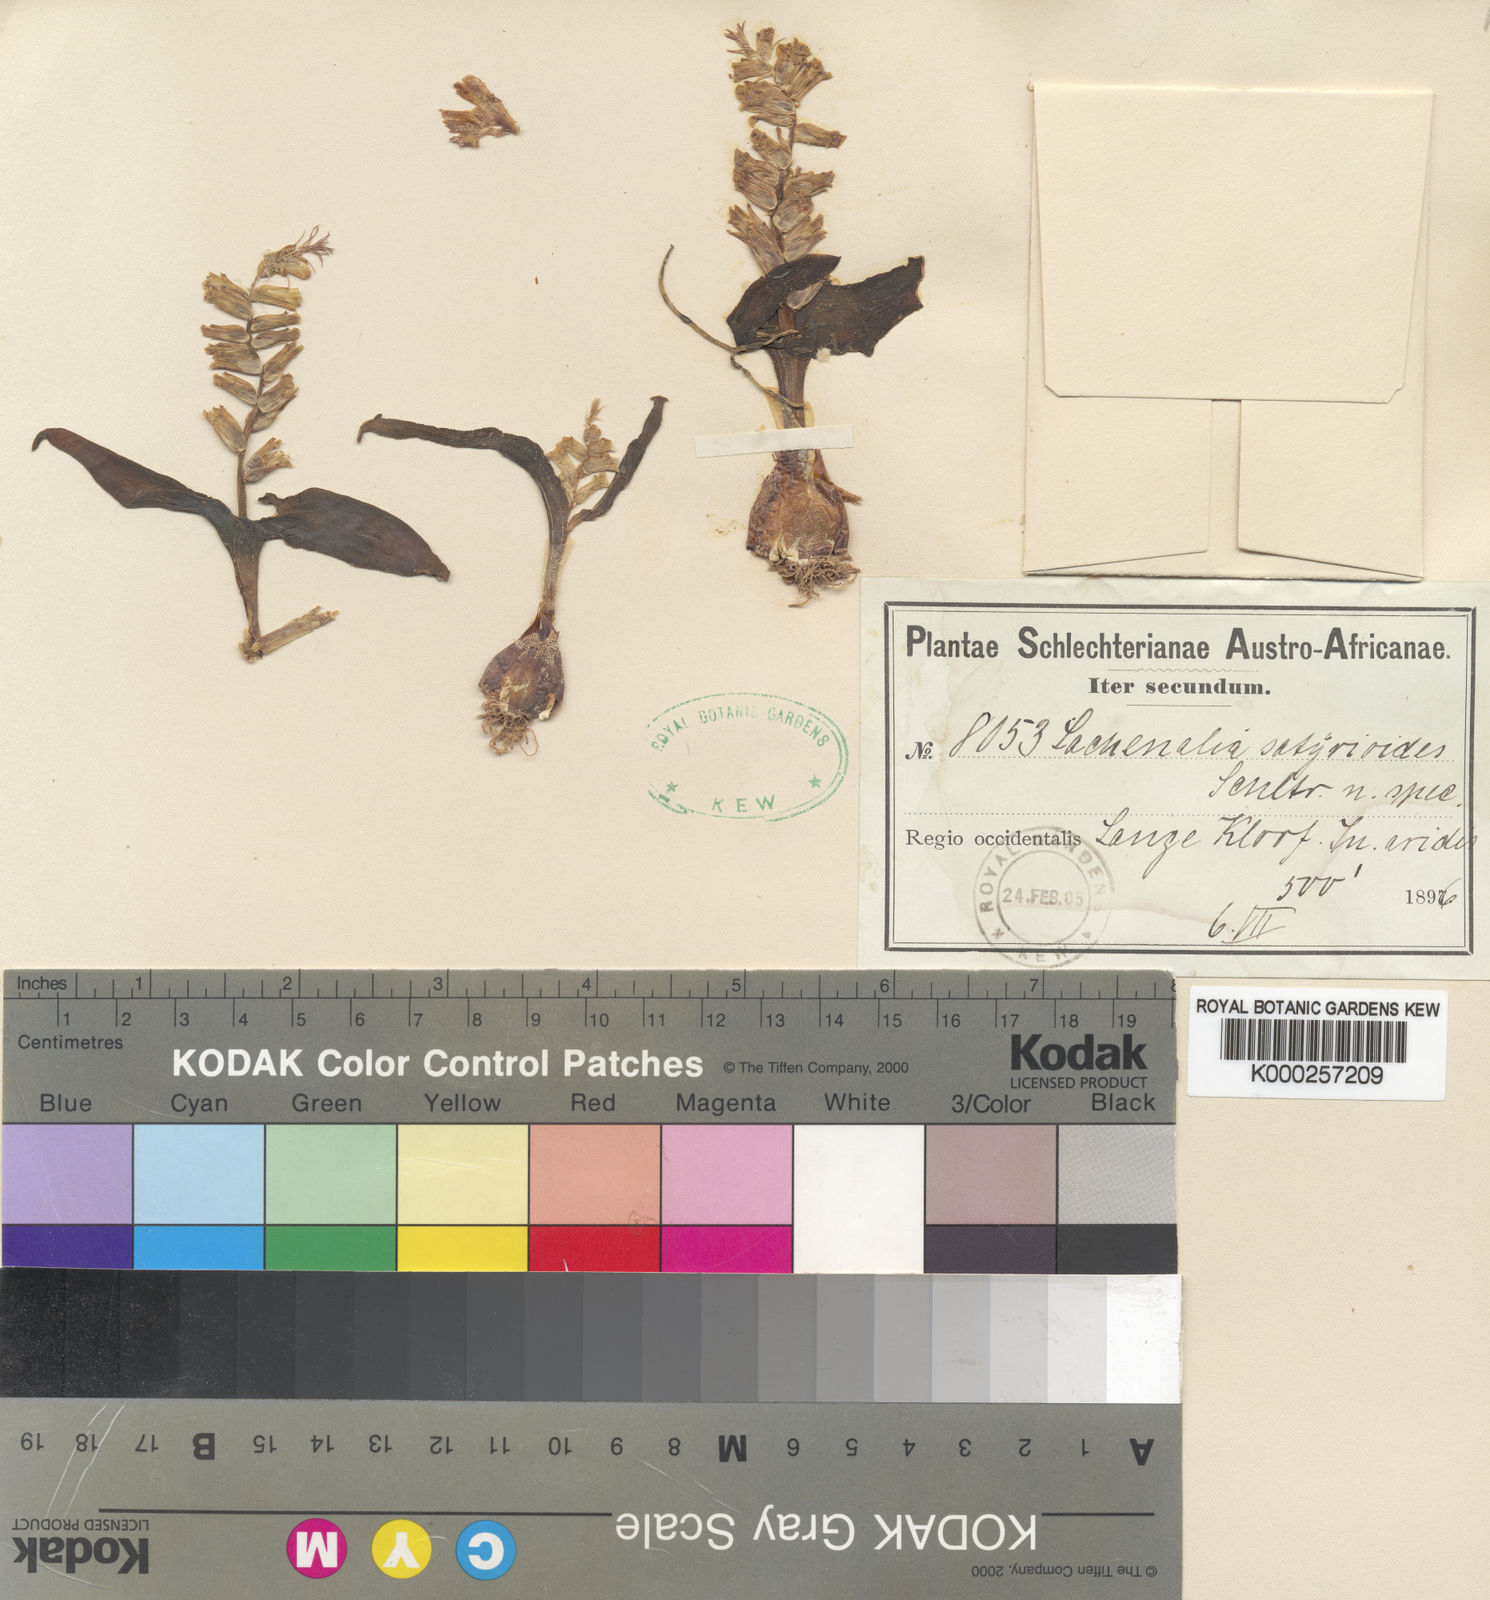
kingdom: Plantae
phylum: Tracheophyta
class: Liliopsida
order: Asparagales
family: Asparagaceae
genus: Lachenalia
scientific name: Lachenalia undulata
